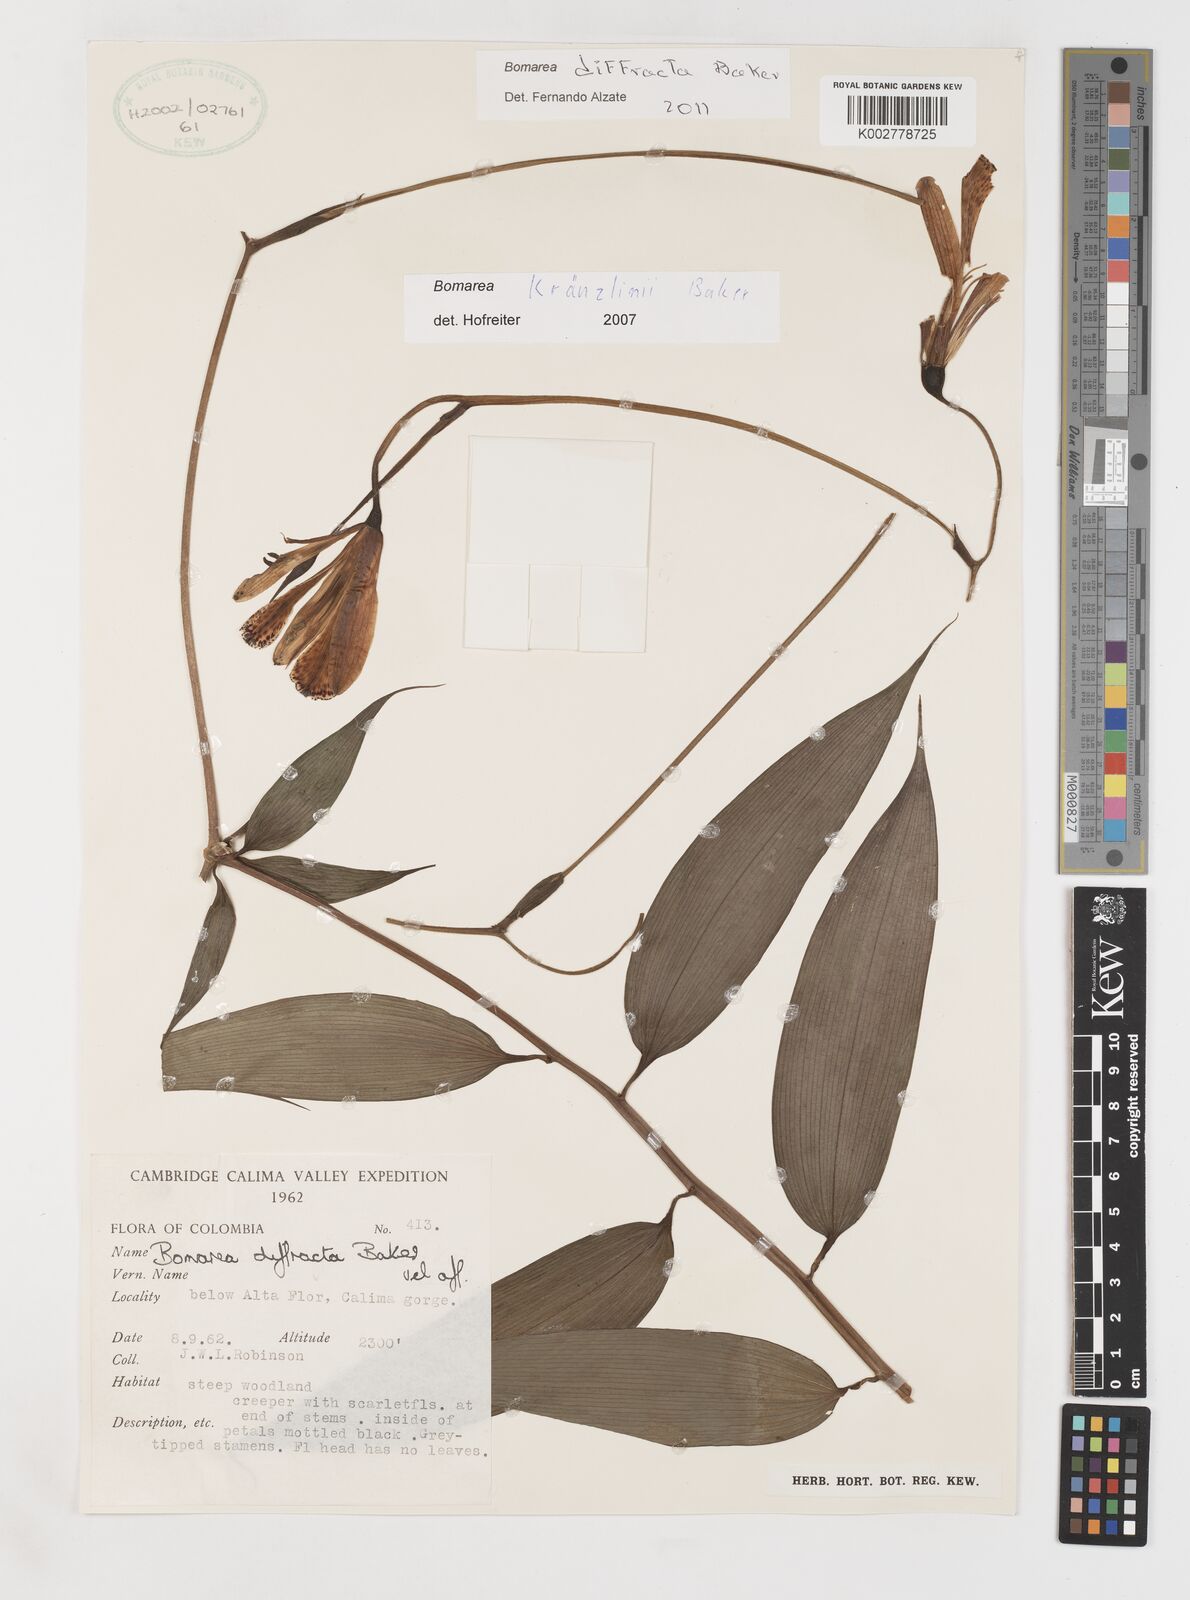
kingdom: Plantae
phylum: Tracheophyta
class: Liliopsida
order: Liliales
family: Alstroemeriaceae
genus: Bomarea
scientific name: Bomarea kraenzlinii
